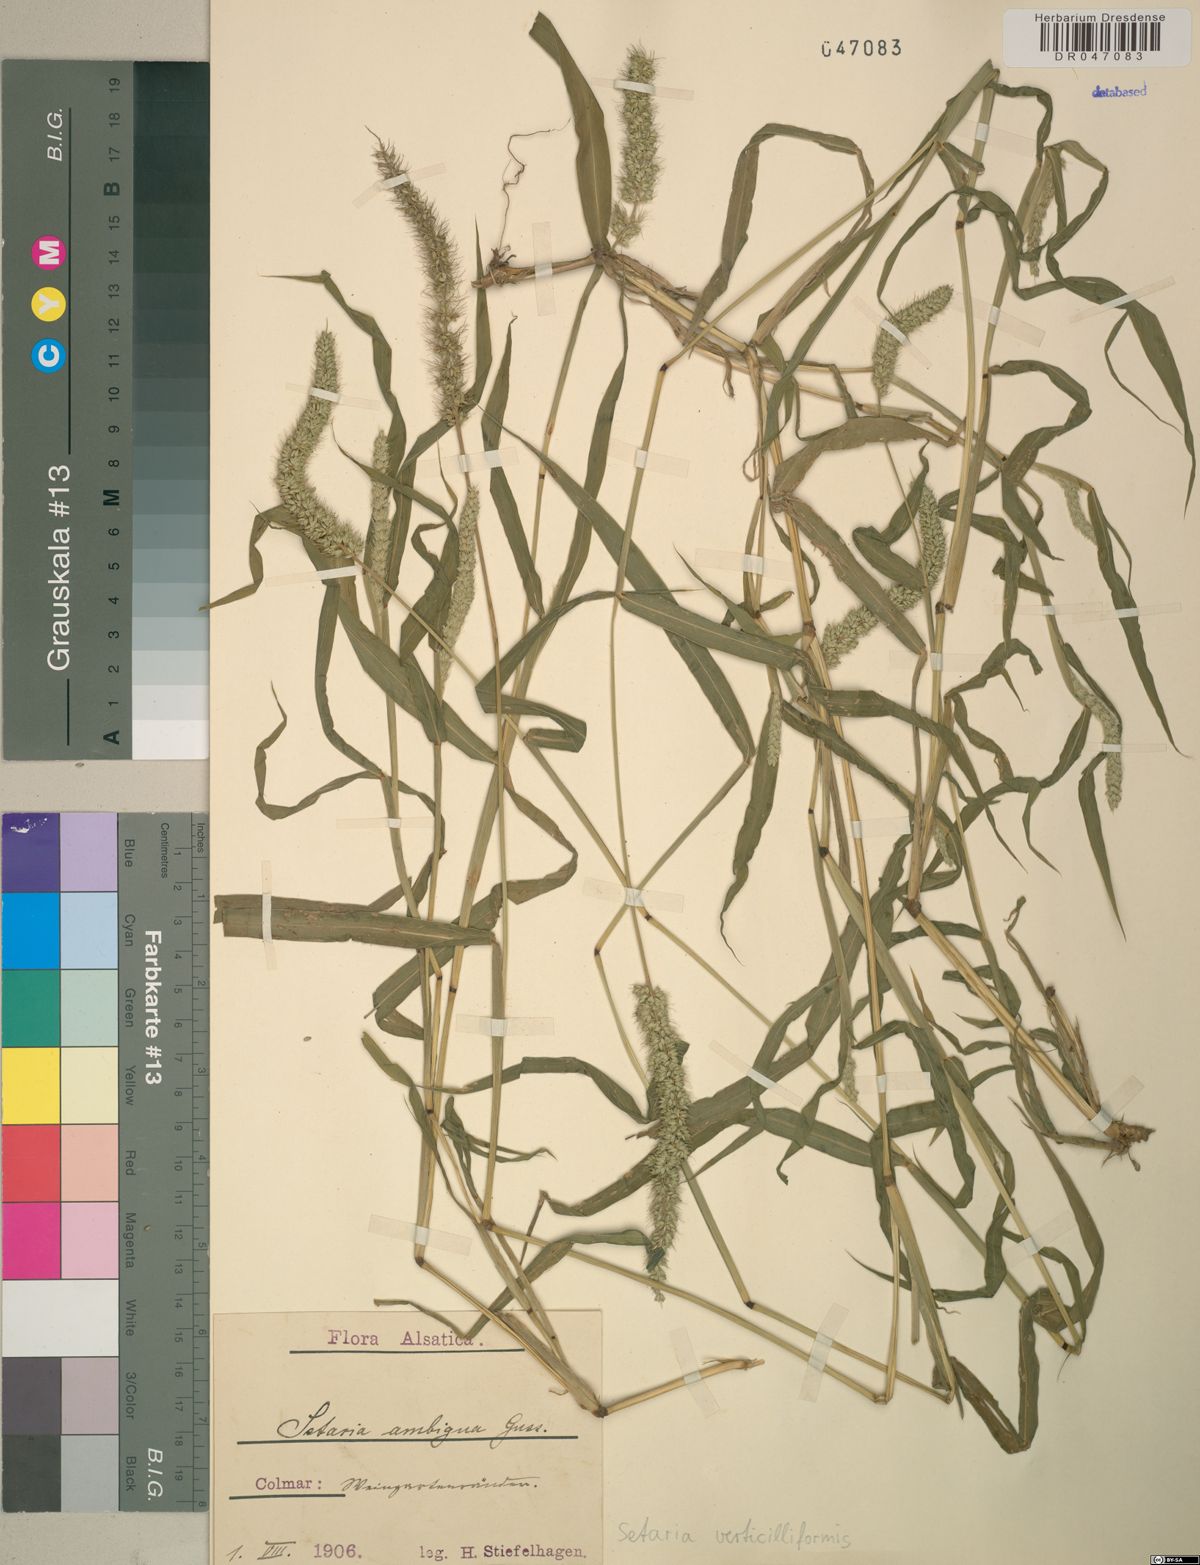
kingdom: Plantae
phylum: Tracheophyta
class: Liliopsida
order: Poales
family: Poaceae
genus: Setaria
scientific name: Setaria verticillata
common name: Hooked bristlegrass
